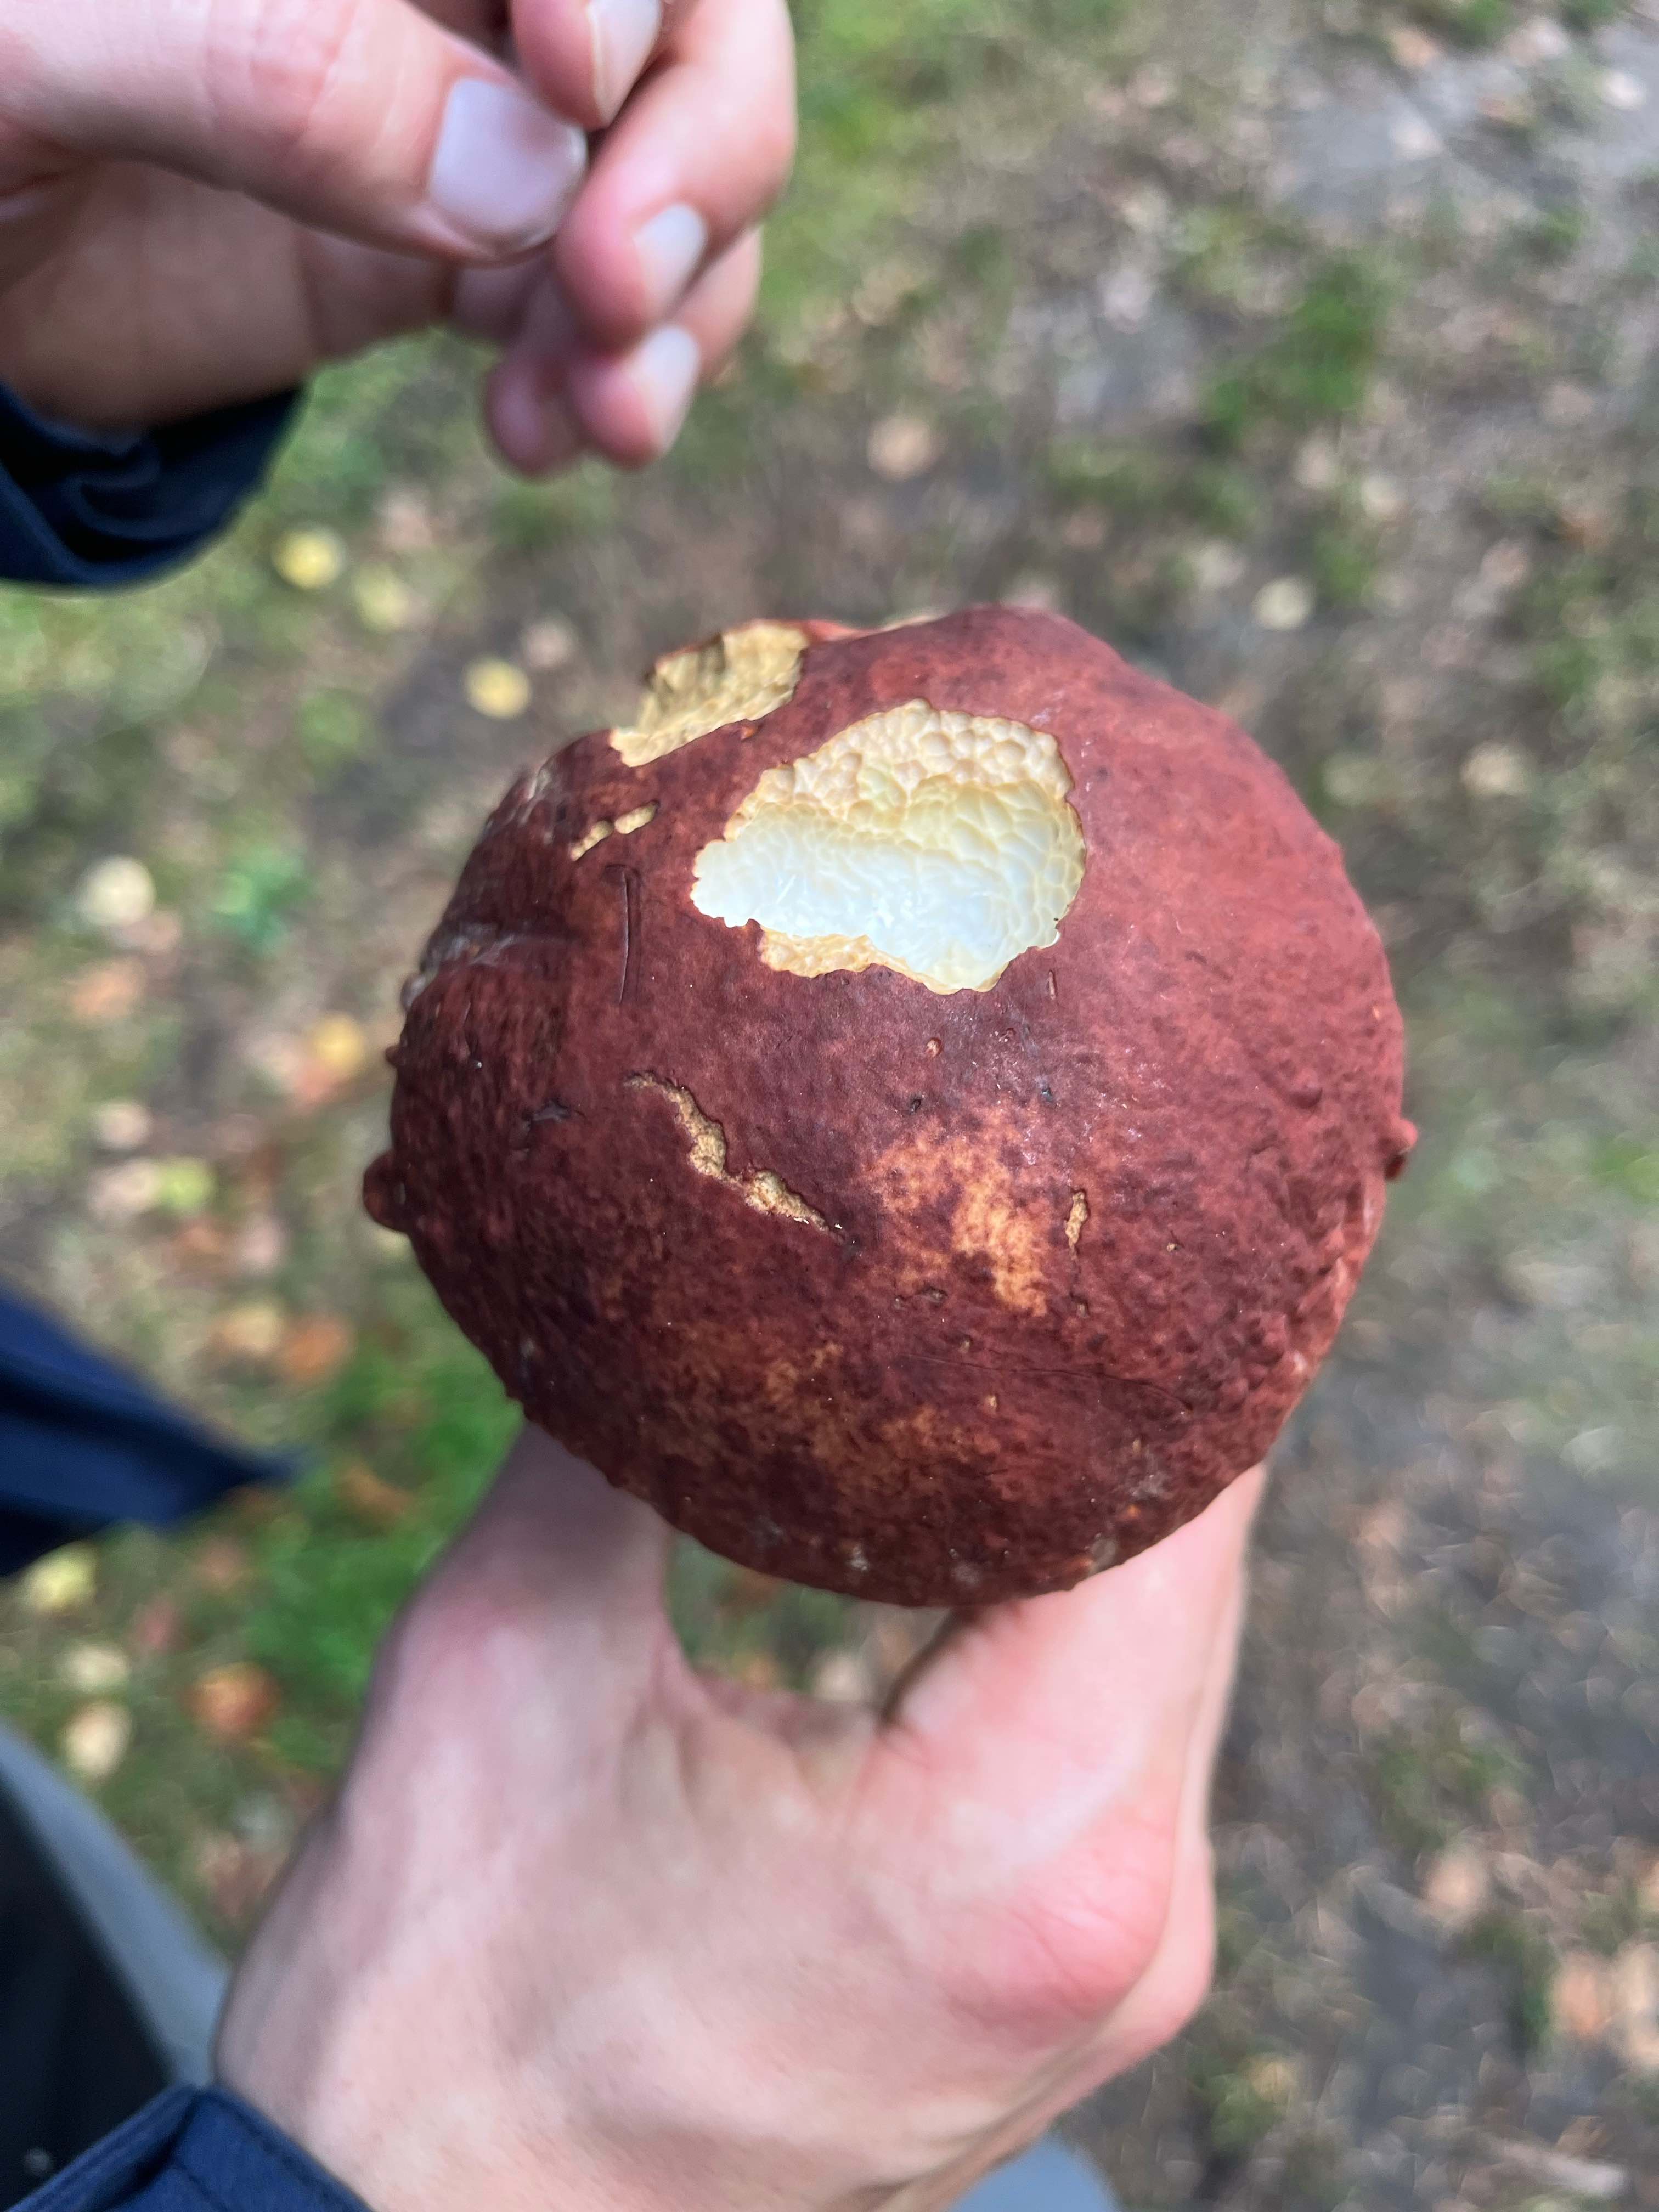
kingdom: Fungi
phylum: Basidiomycota
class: Agaricomycetes
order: Boletales
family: Boletaceae
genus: Boletus
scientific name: Boletus pinophilus
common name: rødbrun rørhat
